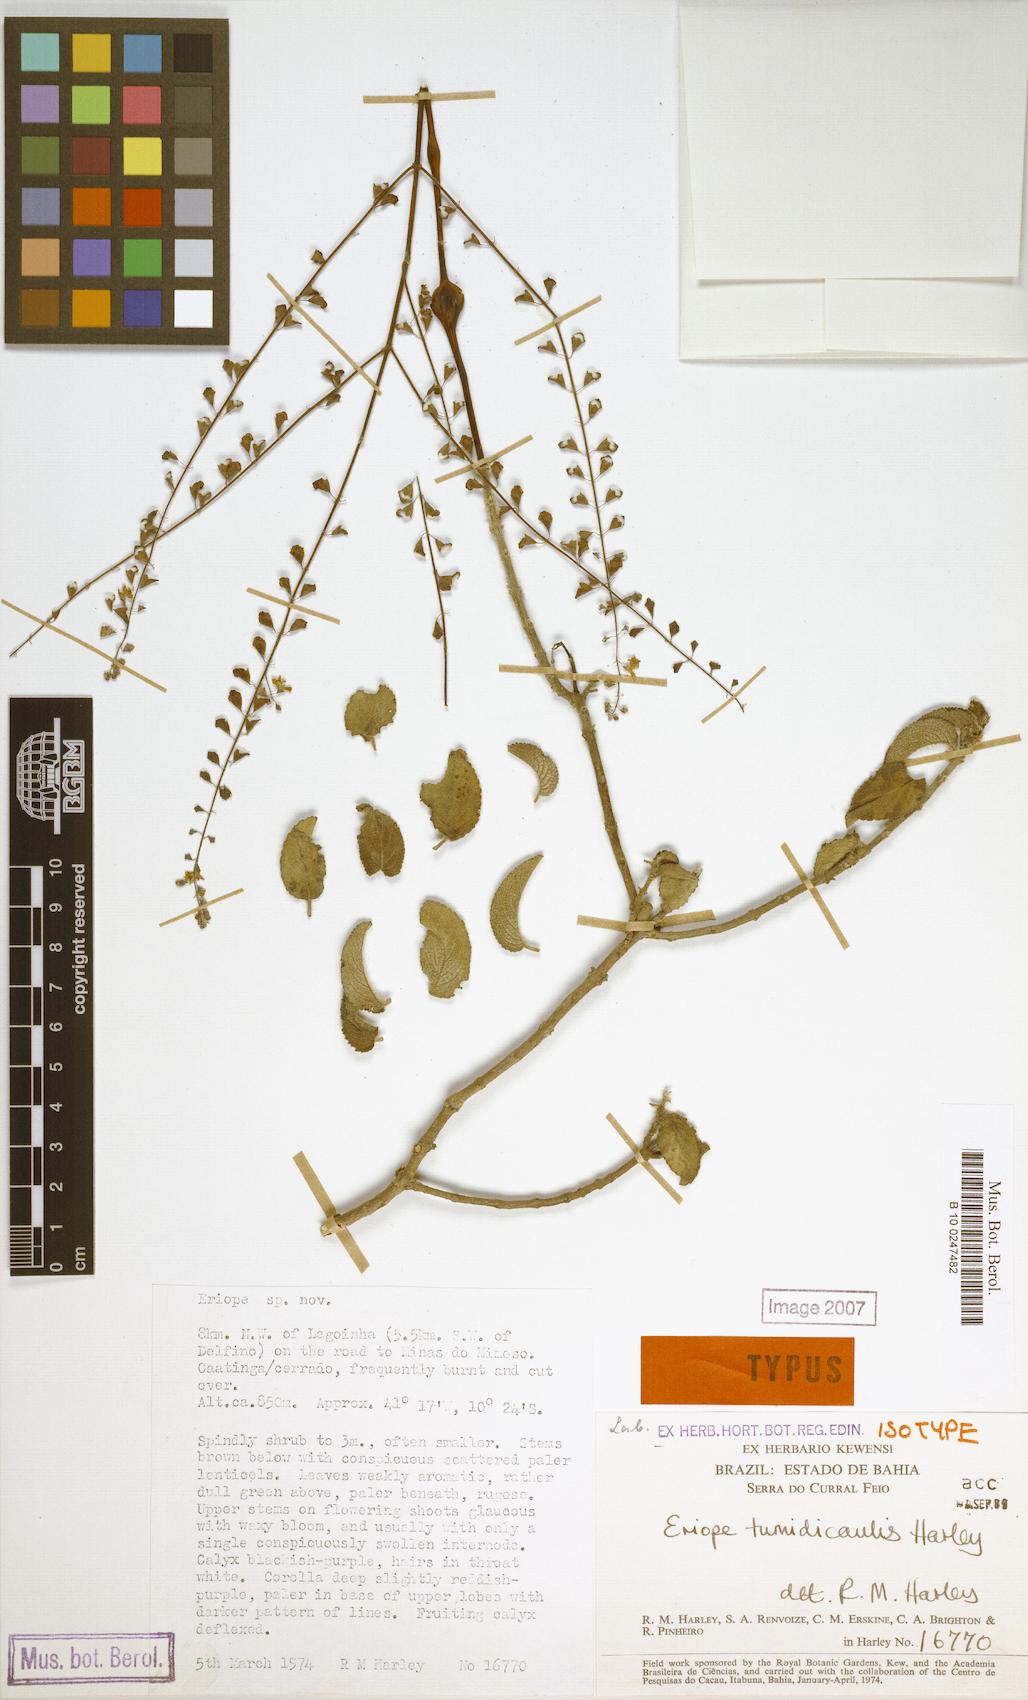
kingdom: Plantae
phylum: Tracheophyta
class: Magnoliopsida
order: Lamiales
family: Lamiaceae
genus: Eriope
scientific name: Eriope tumidicaulis
